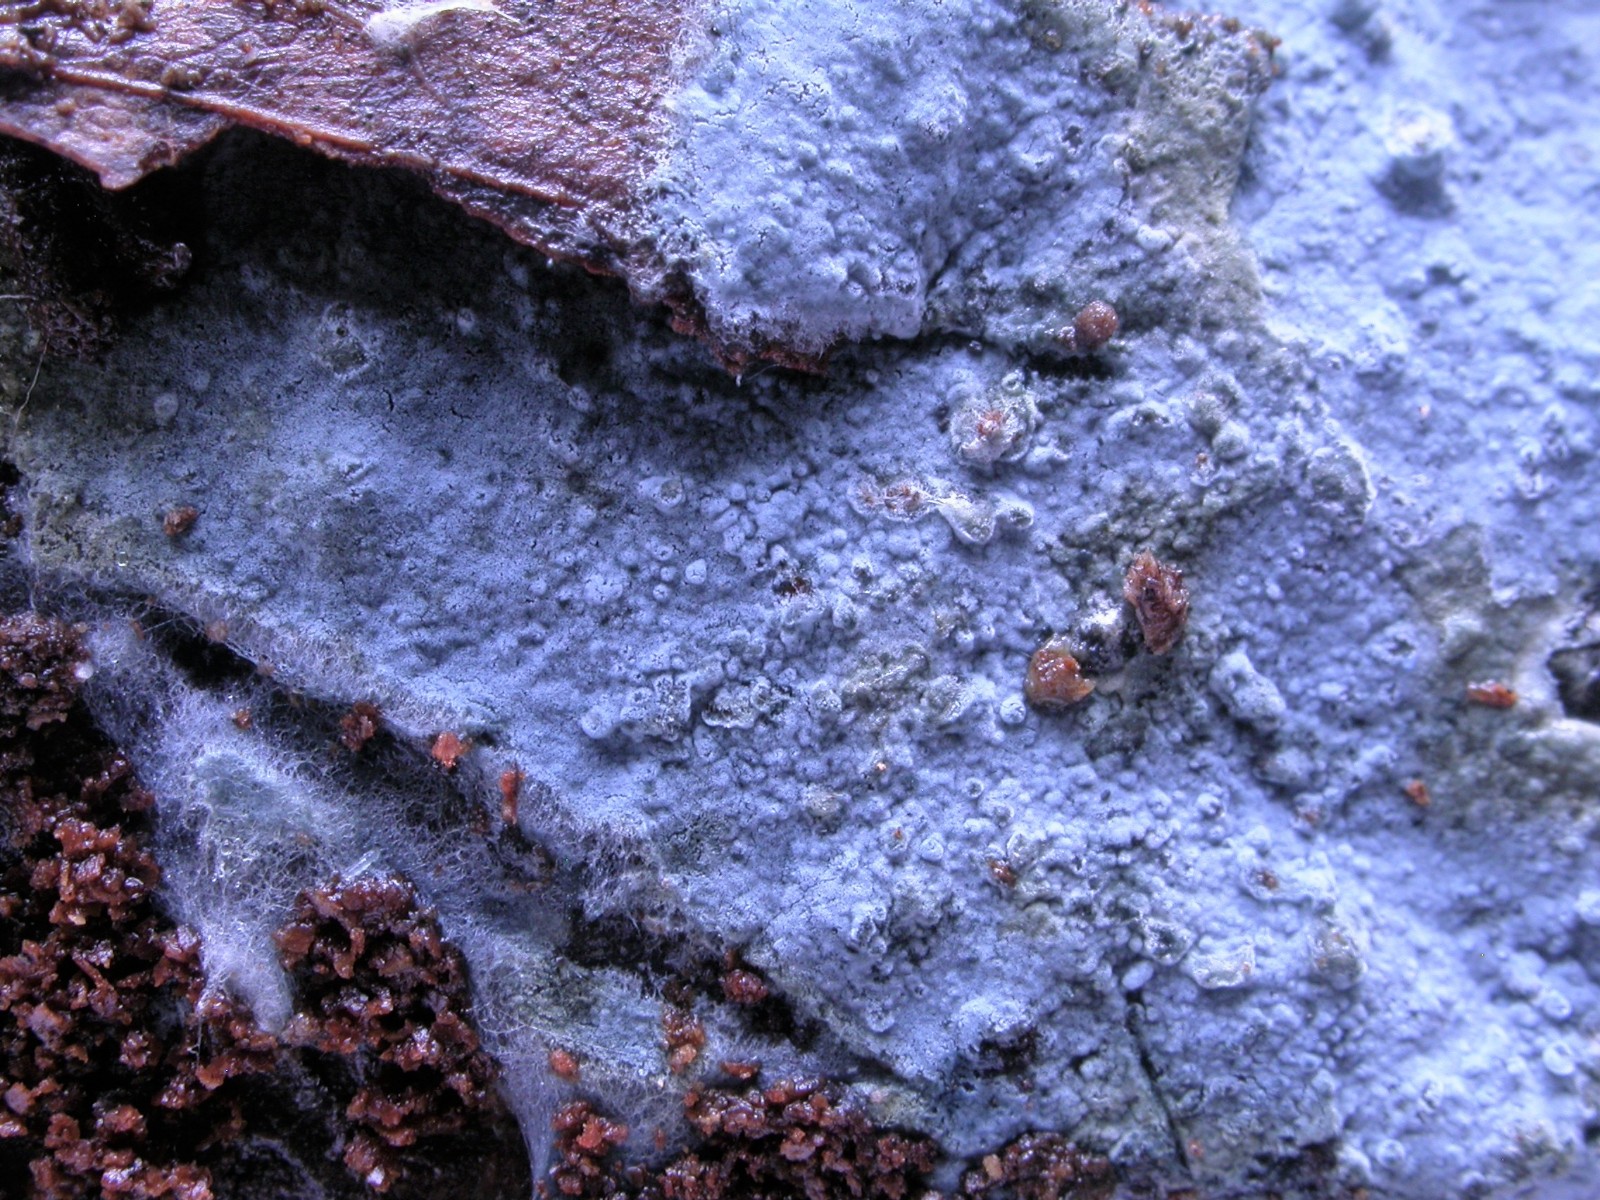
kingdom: Fungi
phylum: Basidiomycota
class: Agaricomycetes
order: Atheliales
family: Atheliaceae
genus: Byssocorticium
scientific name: Byssocorticium atrovirens
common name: blå førnehinde
